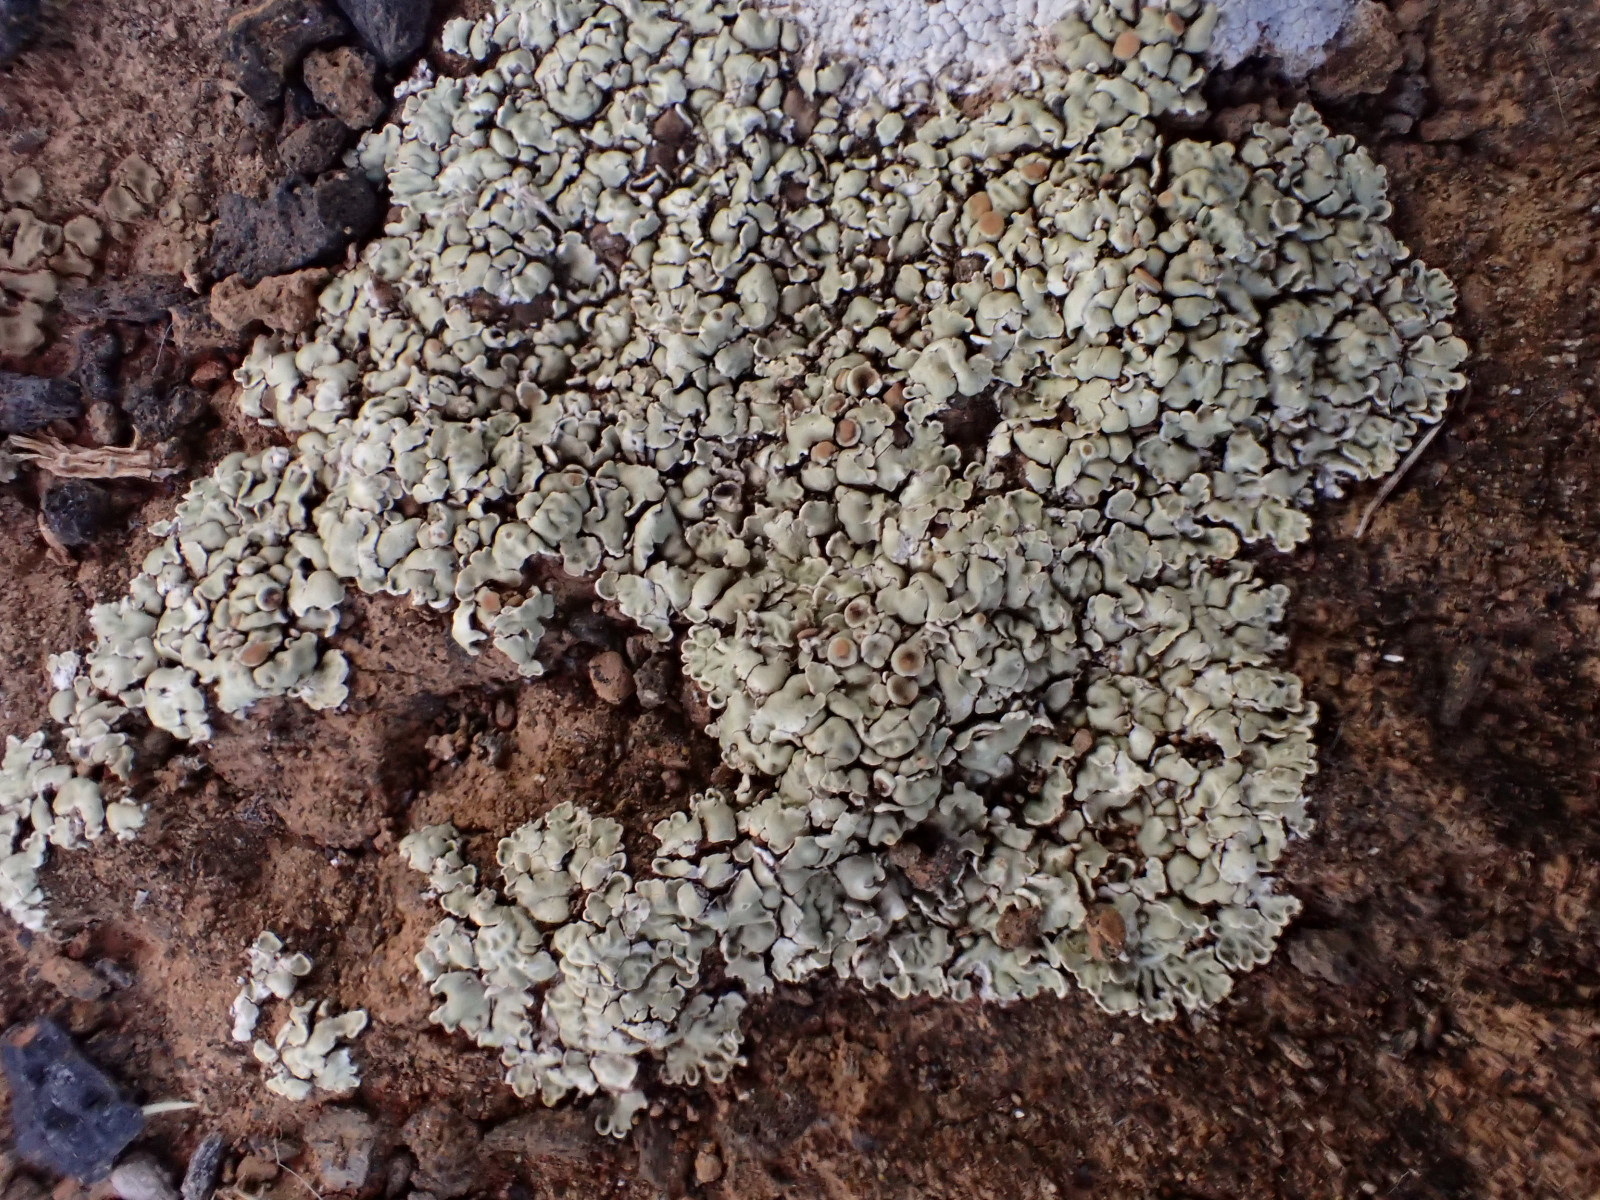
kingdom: Fungi
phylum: Ascomycota
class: Lecanoromycetes
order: Lecanorales
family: Lecanoraceae
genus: Protoparmeliopsis
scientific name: Protoparmeliopsis muralis
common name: randfliget kantskivelav
